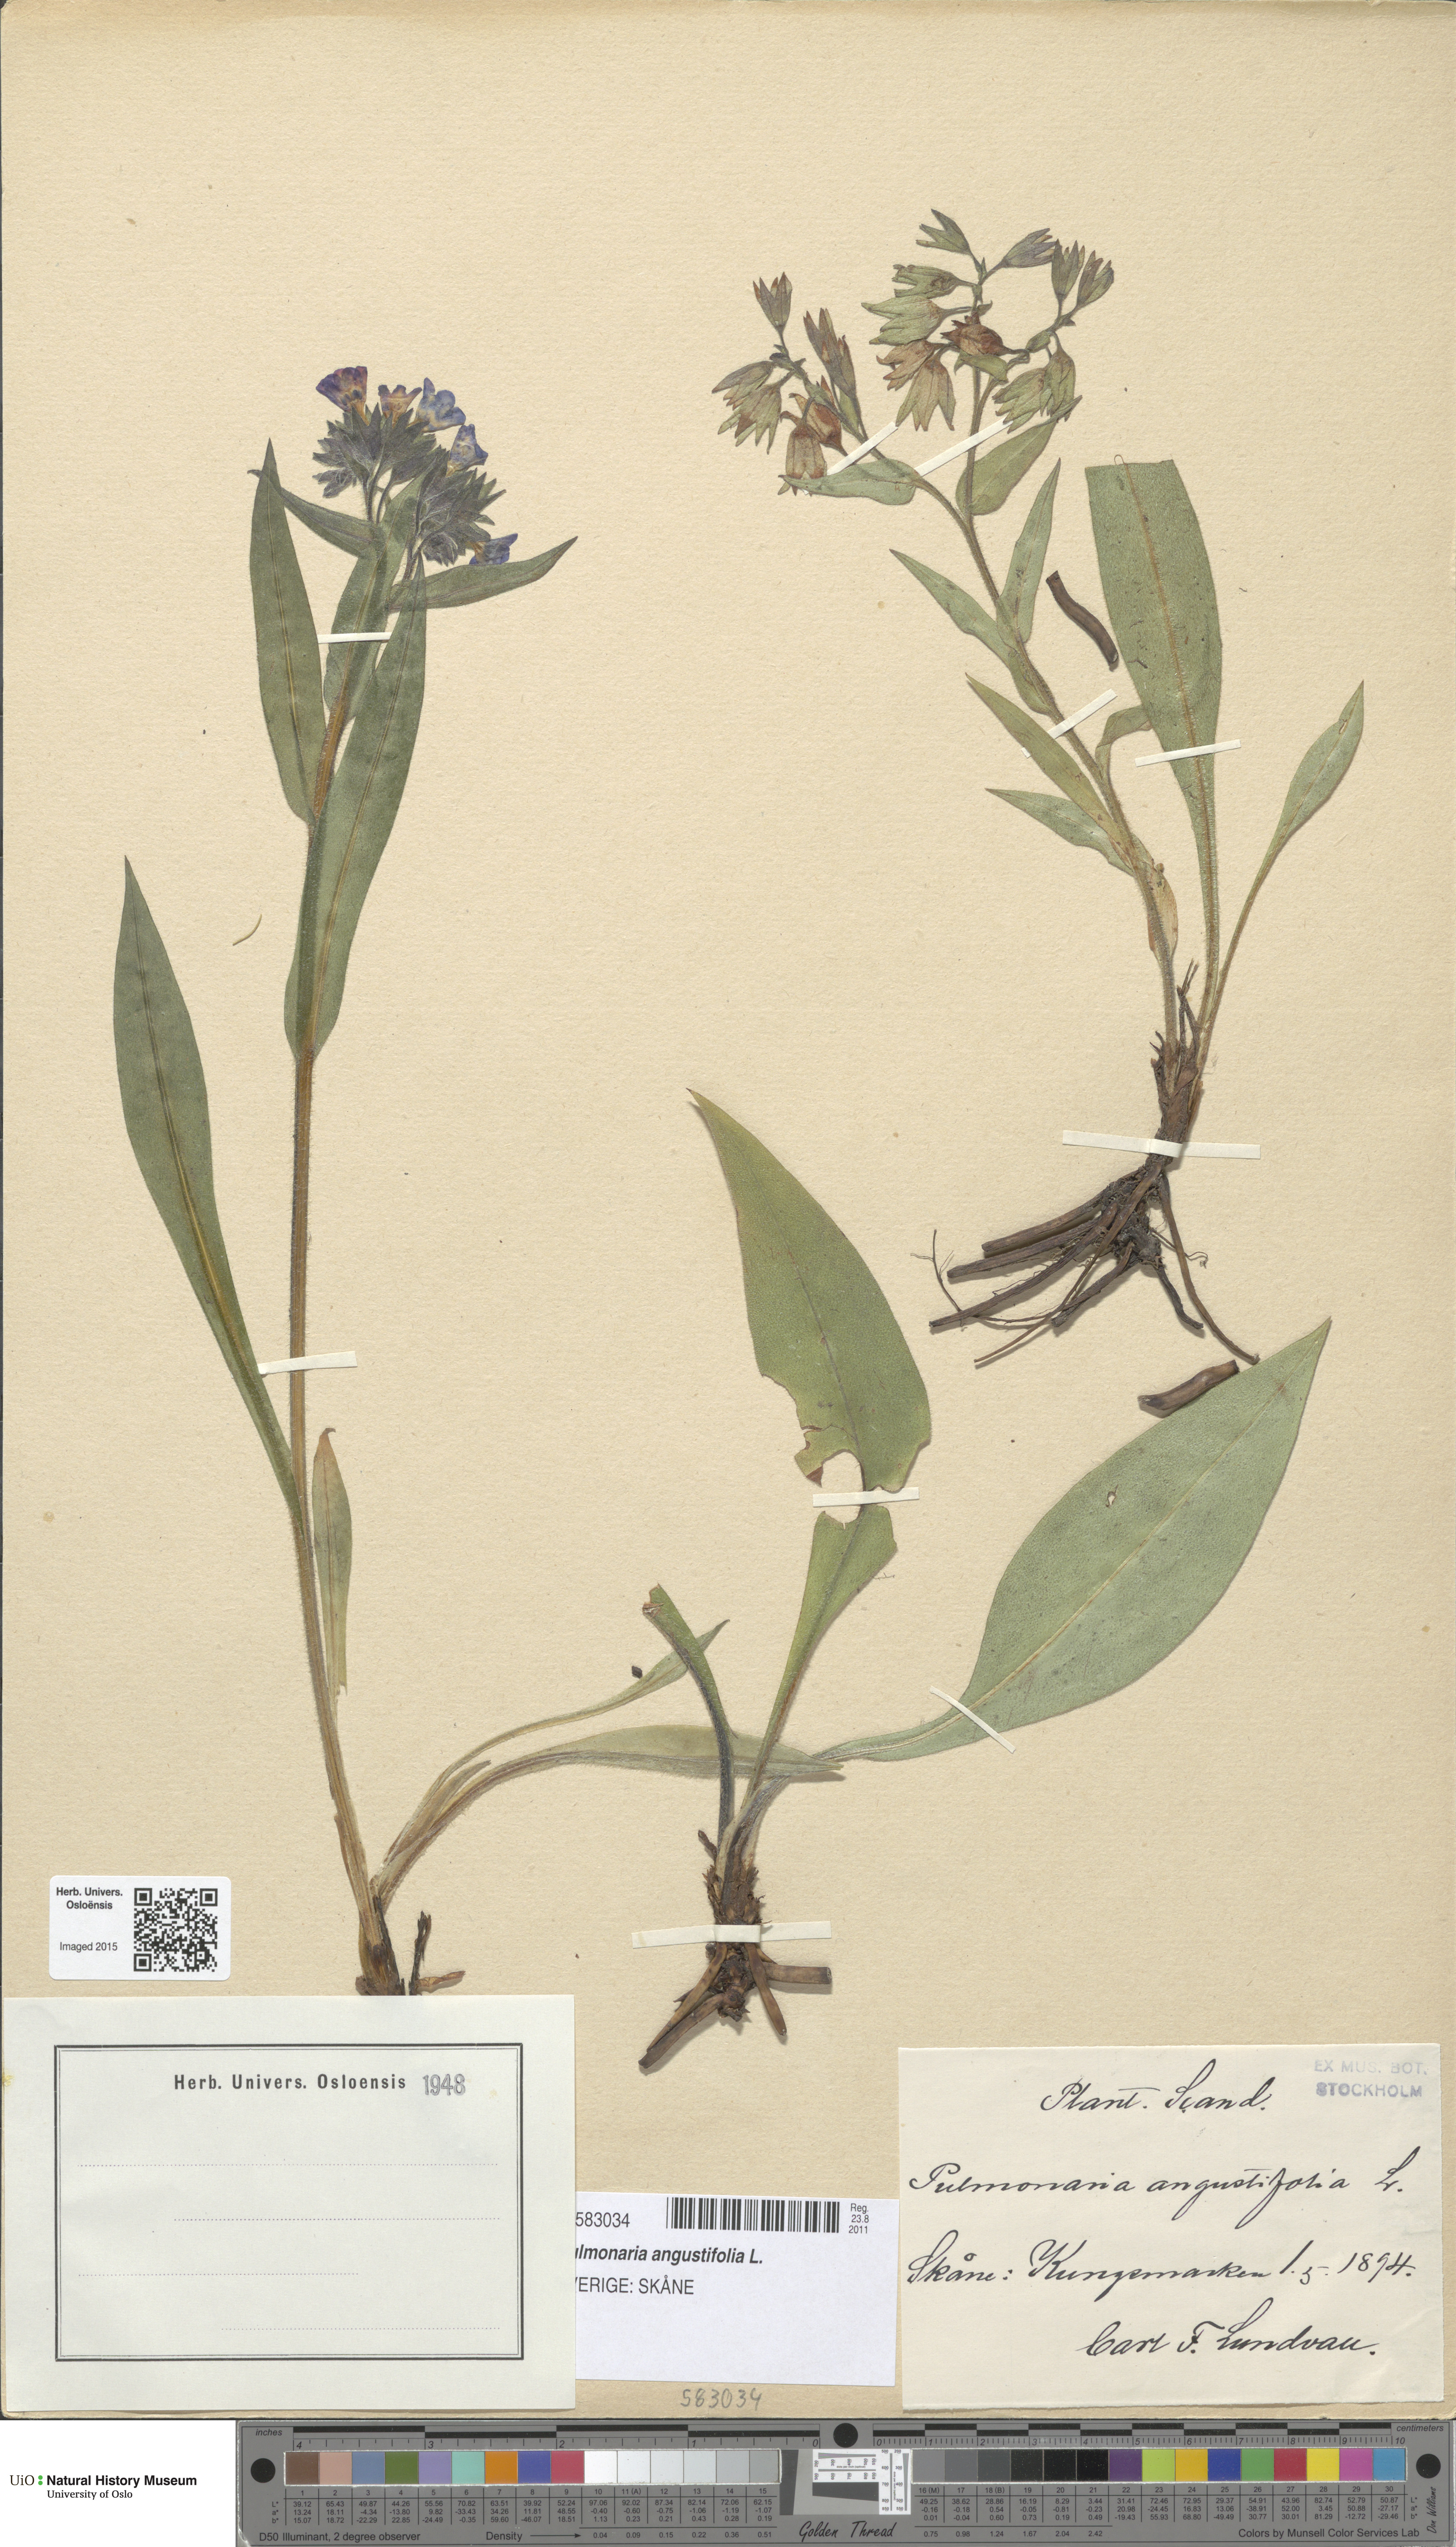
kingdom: Plantae
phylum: Tracheophyta
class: Magnoliopsida
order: Boraginales
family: Boraginaceae
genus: Pulmonaria
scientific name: Pulmonaria angustifolia
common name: Blue cowslip
